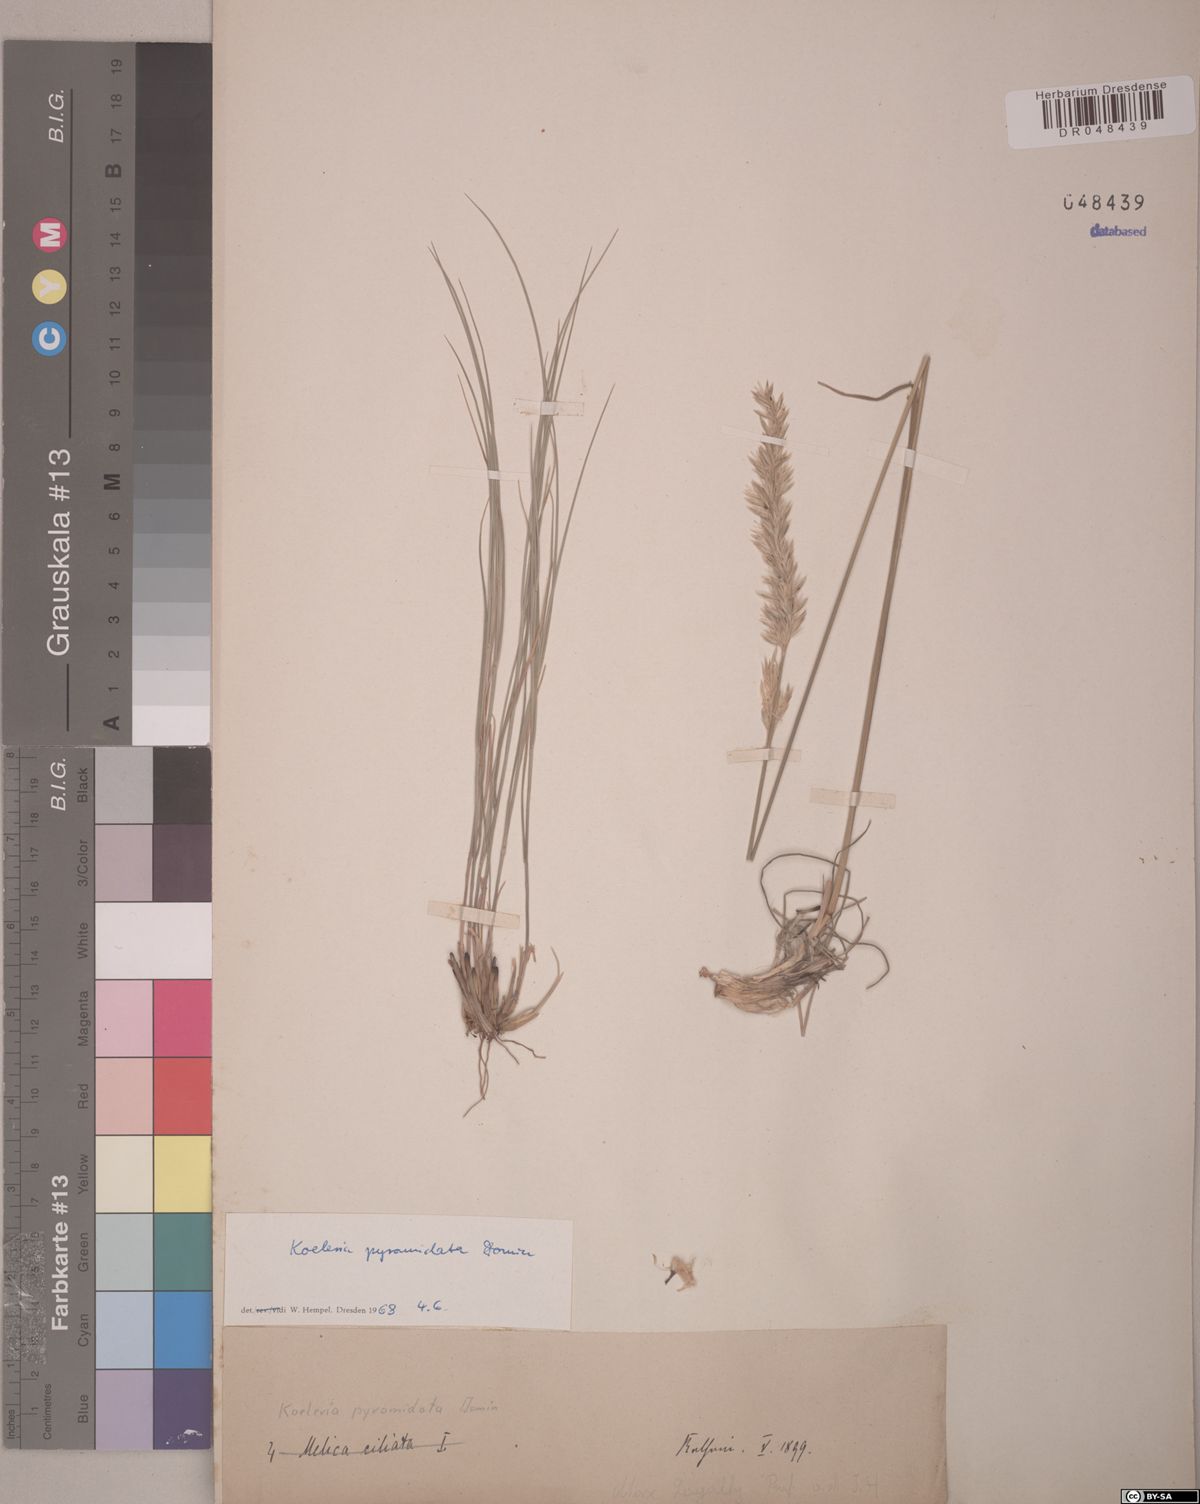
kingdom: Plantae
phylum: Tracheophyta
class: Liliopsida
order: Poales
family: Poaceae
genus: Koeleria
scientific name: Koeleria pyramidata
